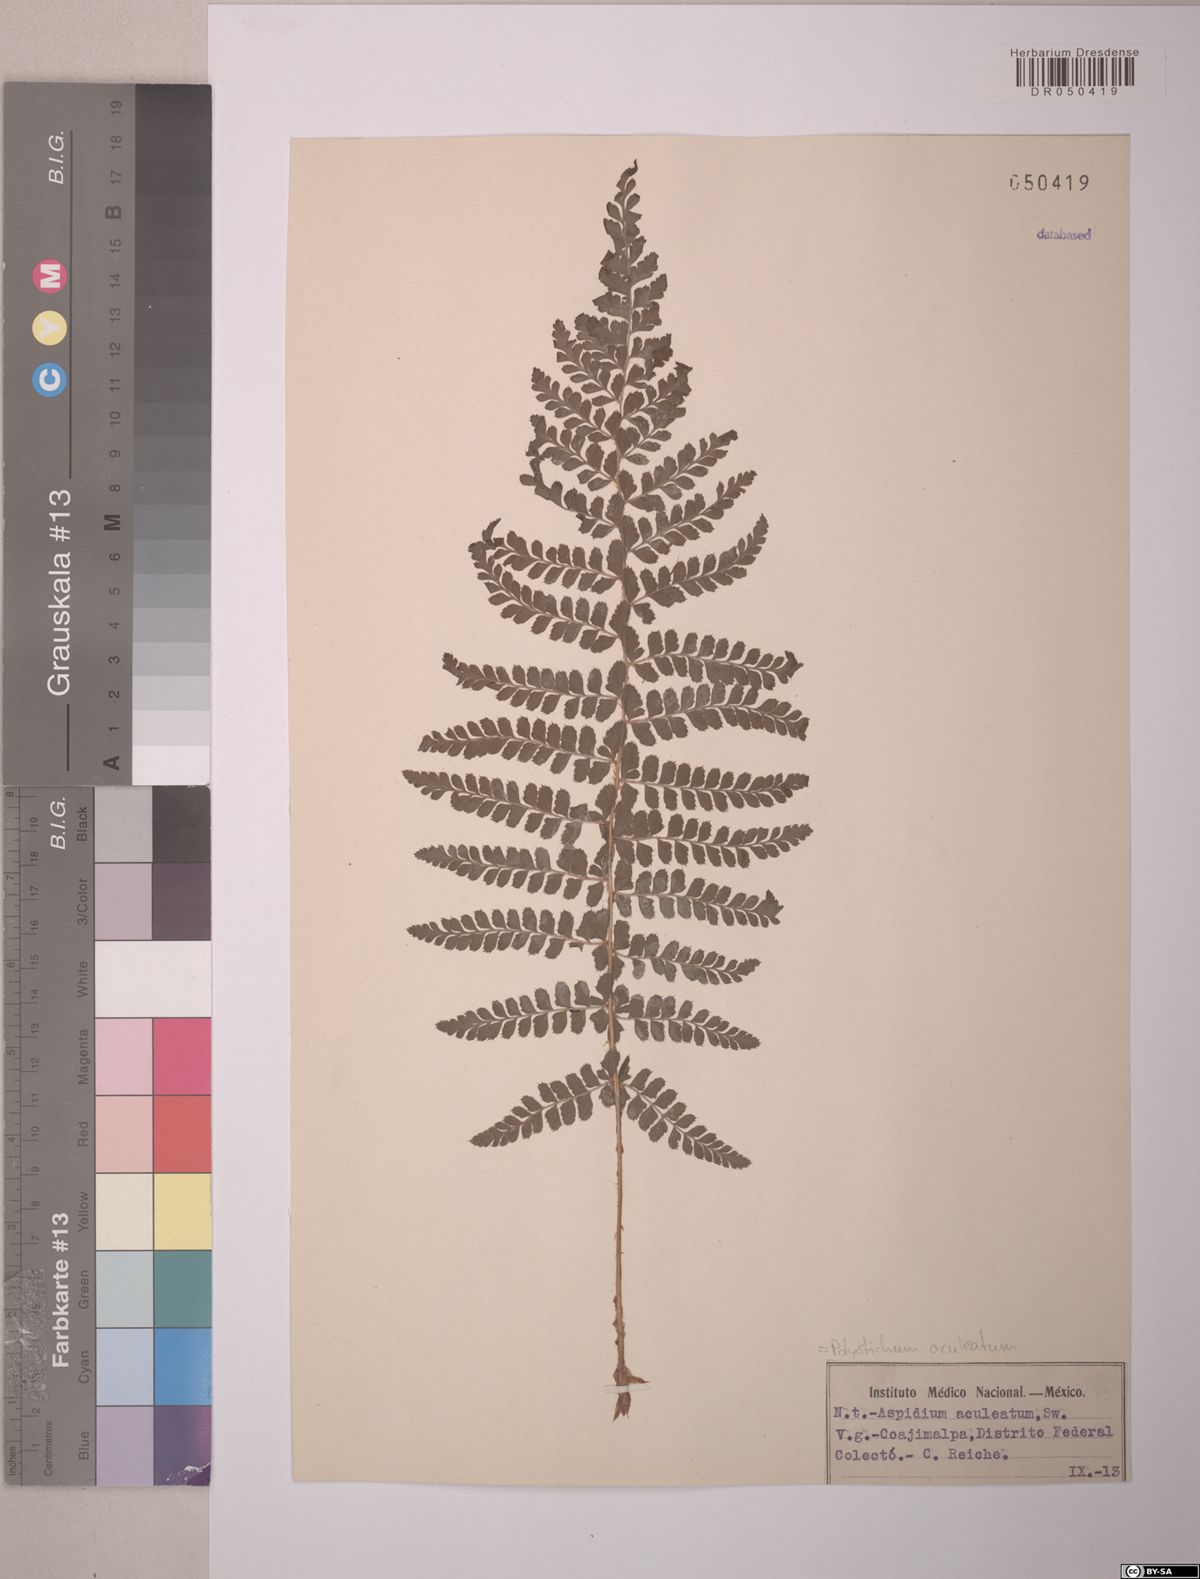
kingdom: Plantae
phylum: Tracheophyta
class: Polypodiopsida
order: Polypodiales
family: Dryopteridaceae
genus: Polystichum
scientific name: Polystichum aculeatum
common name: Hard shield-fern
